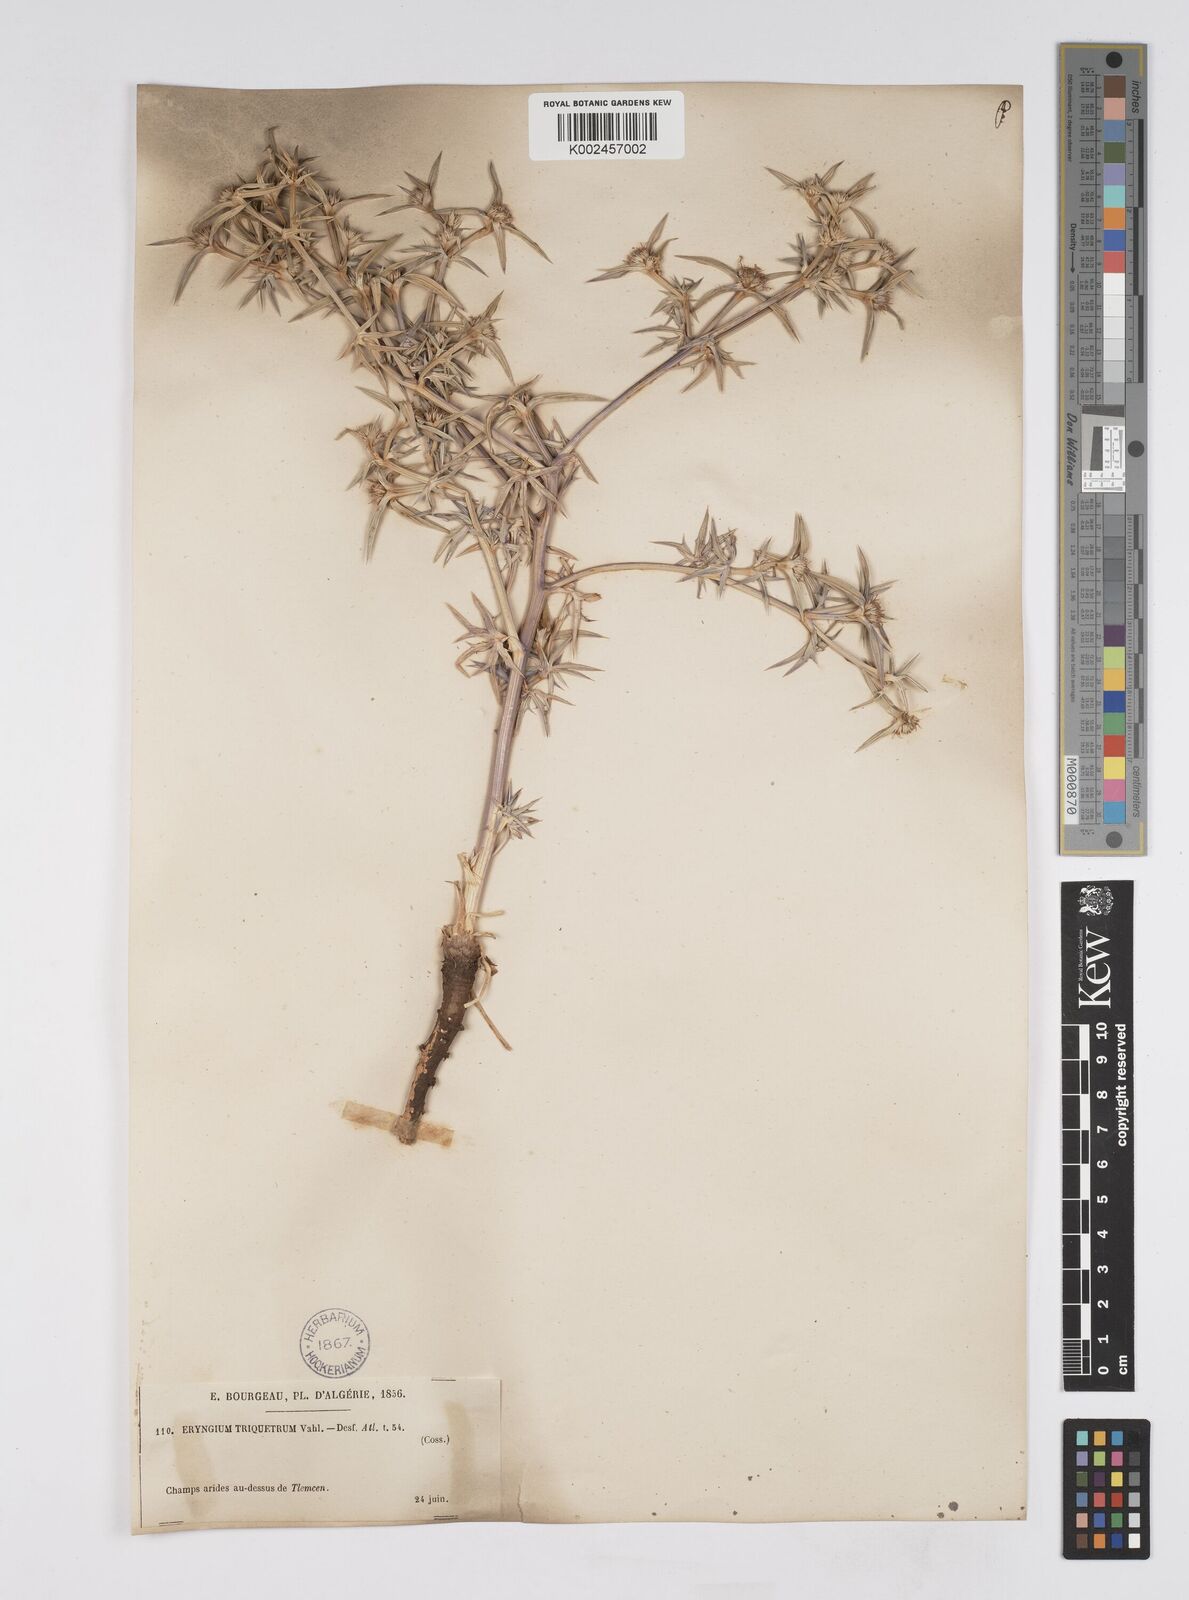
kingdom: Plantae
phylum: Tracheophyta
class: Magnoliopsida
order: Apiales
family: Apiaceae
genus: Eryngium
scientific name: Eryngium triquetrum
